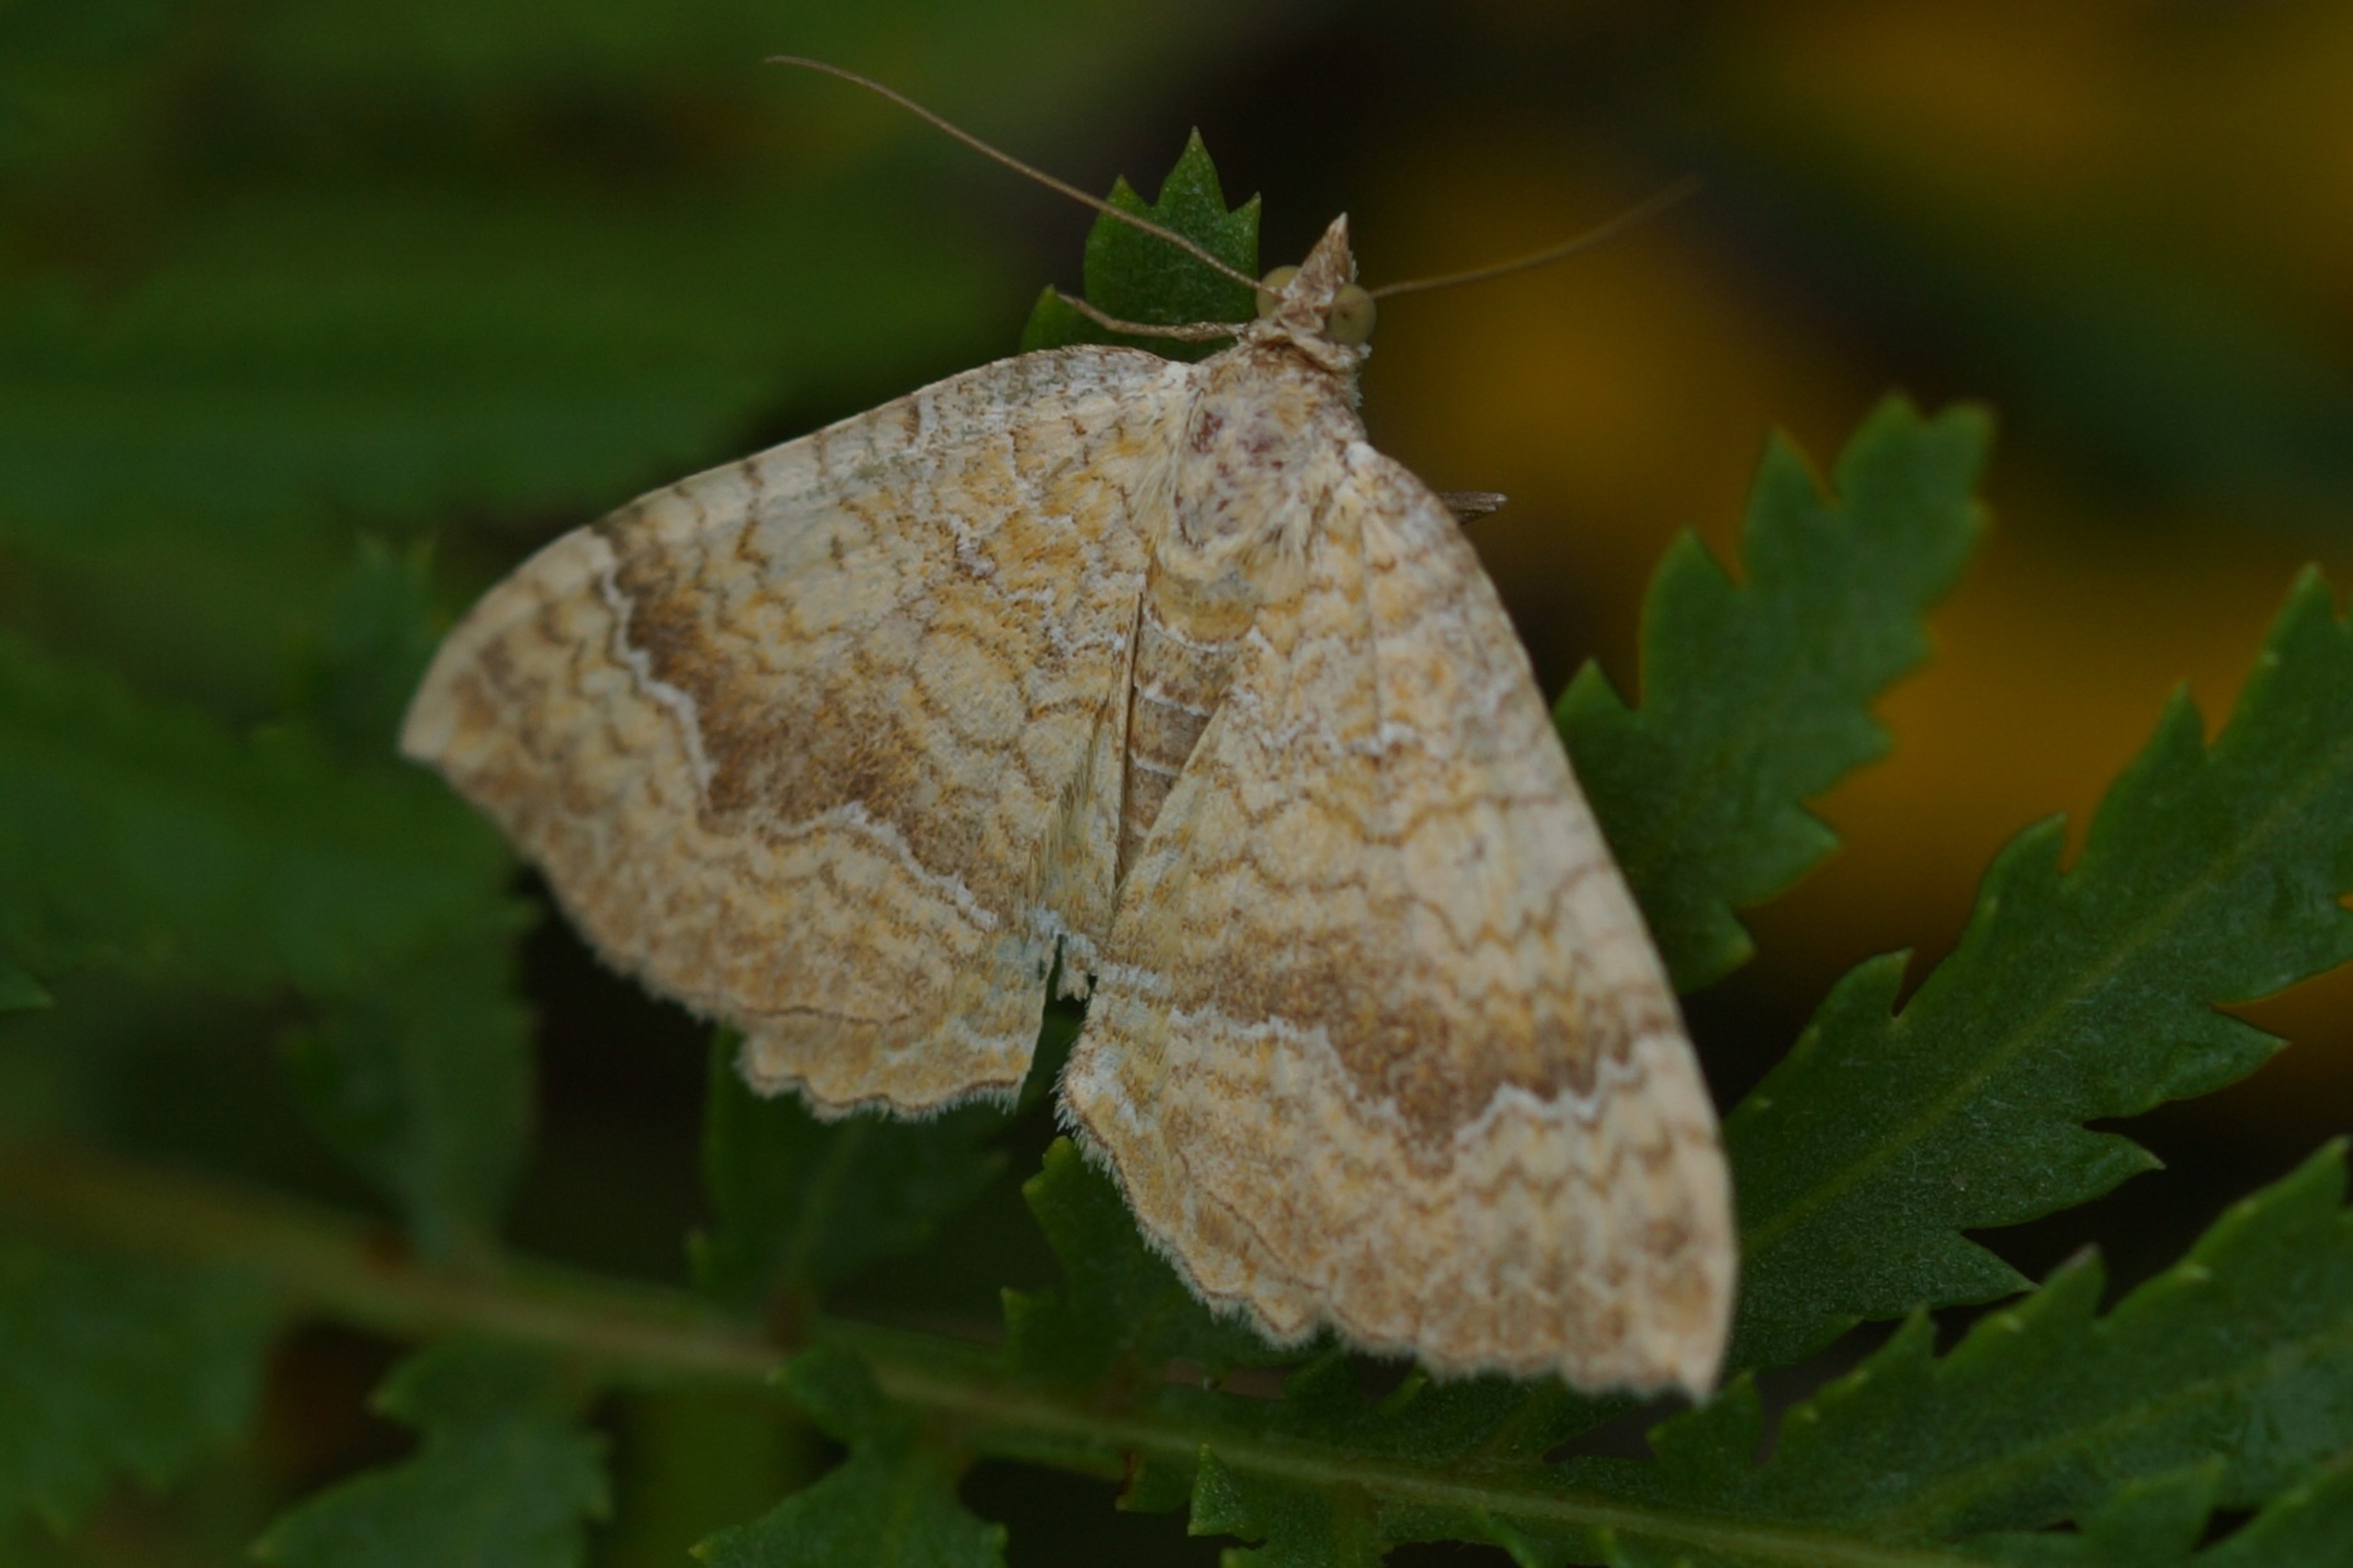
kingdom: Animalia
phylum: Arthropoda
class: Insecta
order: Lepidoptera
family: Geometridae
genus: Camptogramma
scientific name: Camptogramma bilineata
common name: Okkergul bladmåler
